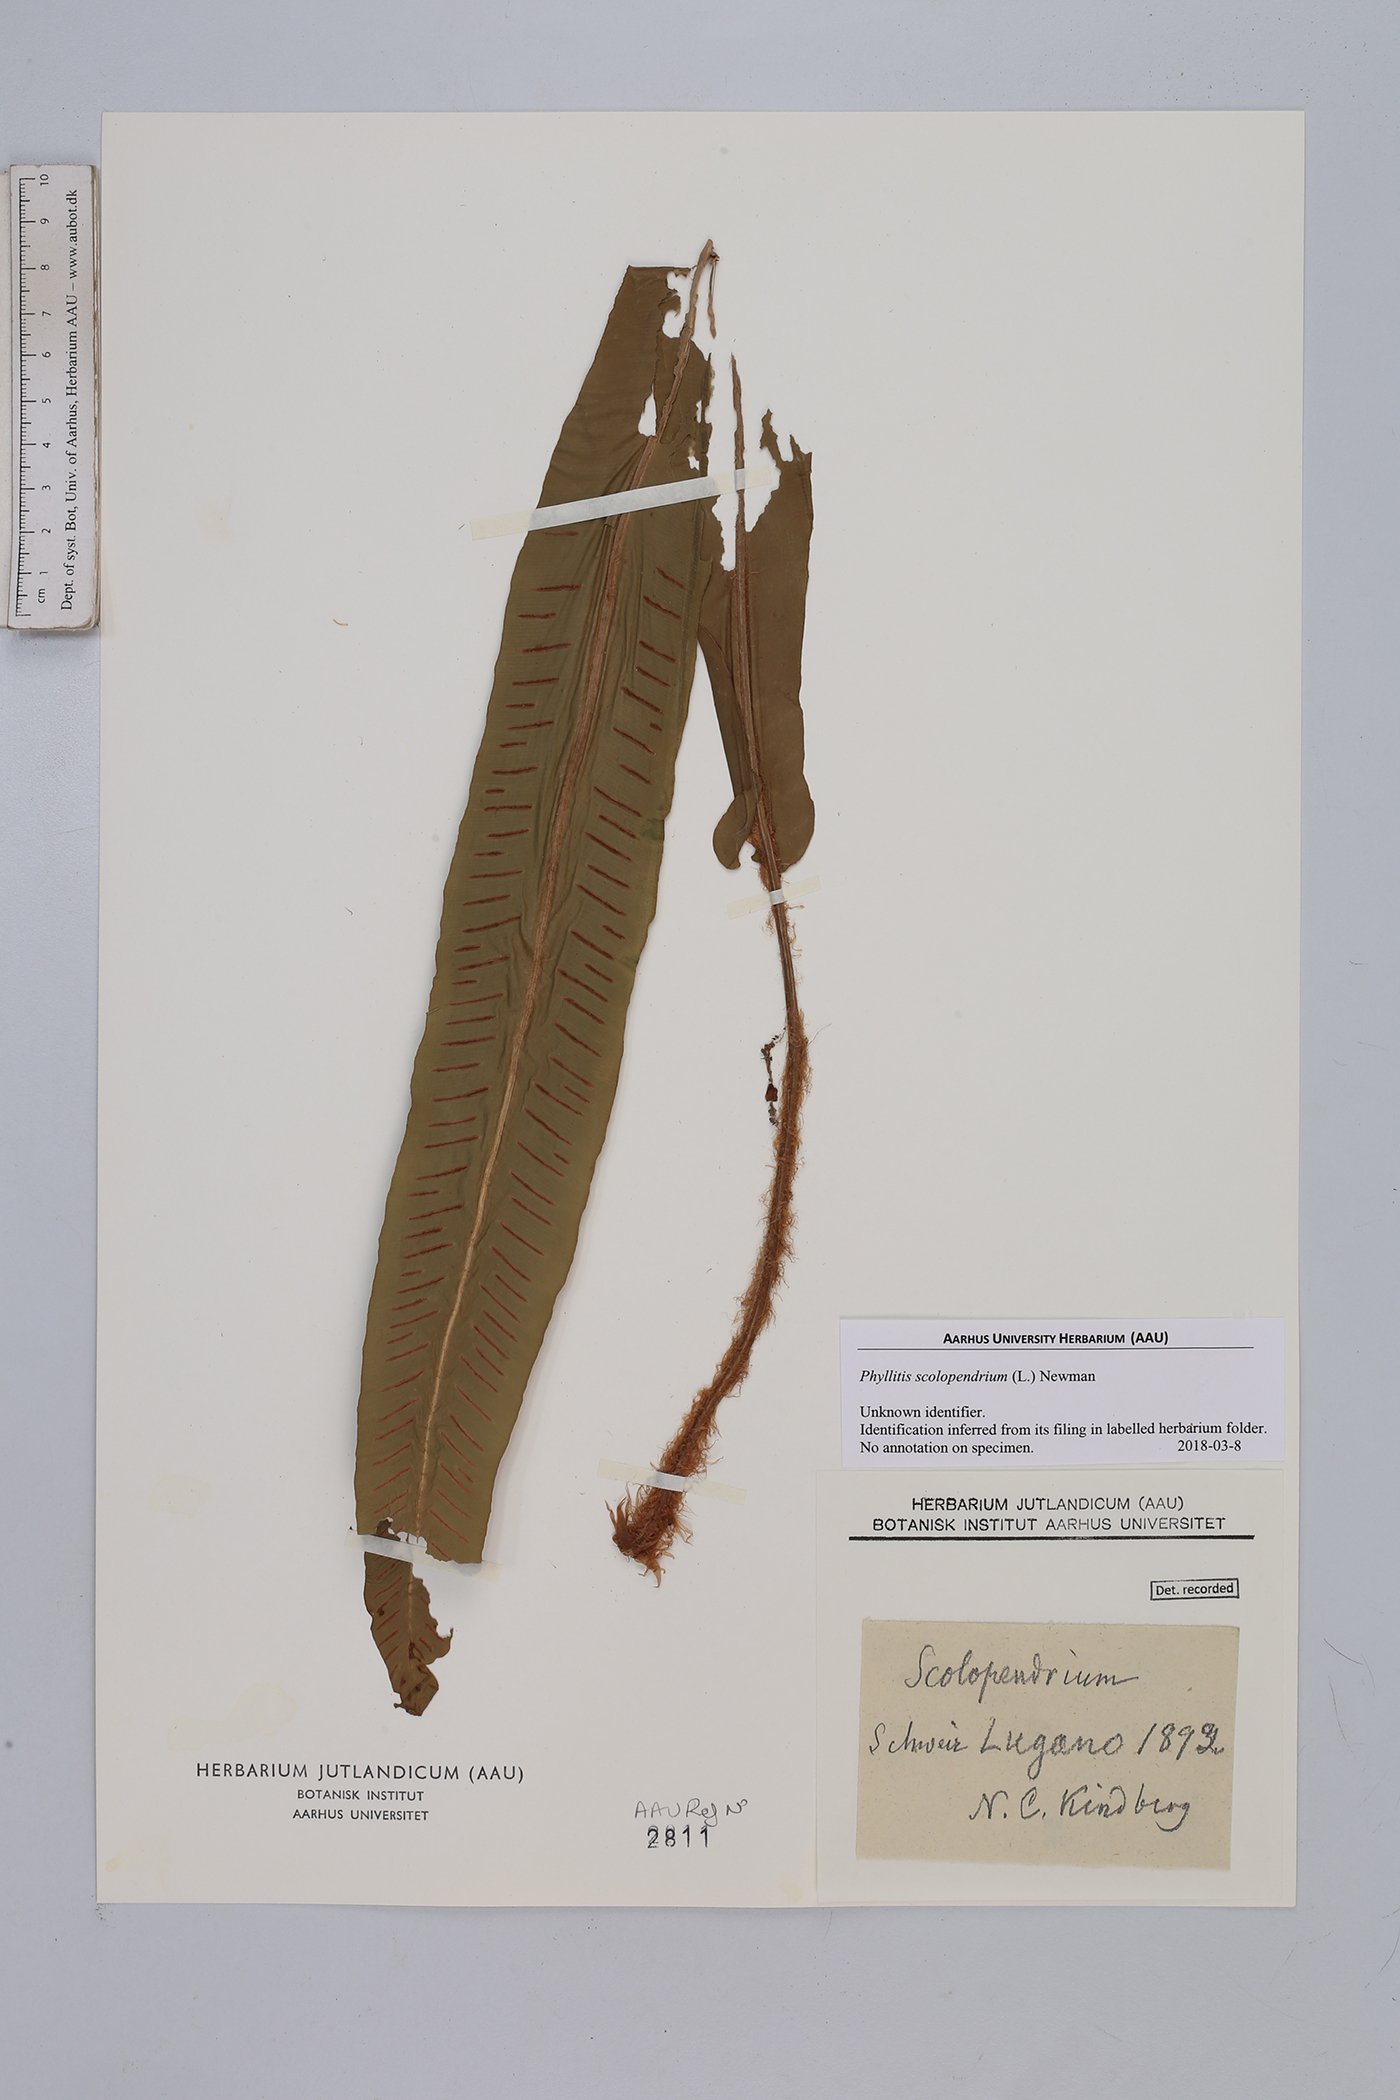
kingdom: Plantae
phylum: Tracheophyta
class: Polypodiopsida
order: Polypodiales
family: Aspleniaceae
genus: Asplenium
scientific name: Asplenium scolopendrium
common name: Hart's-tongue fern
